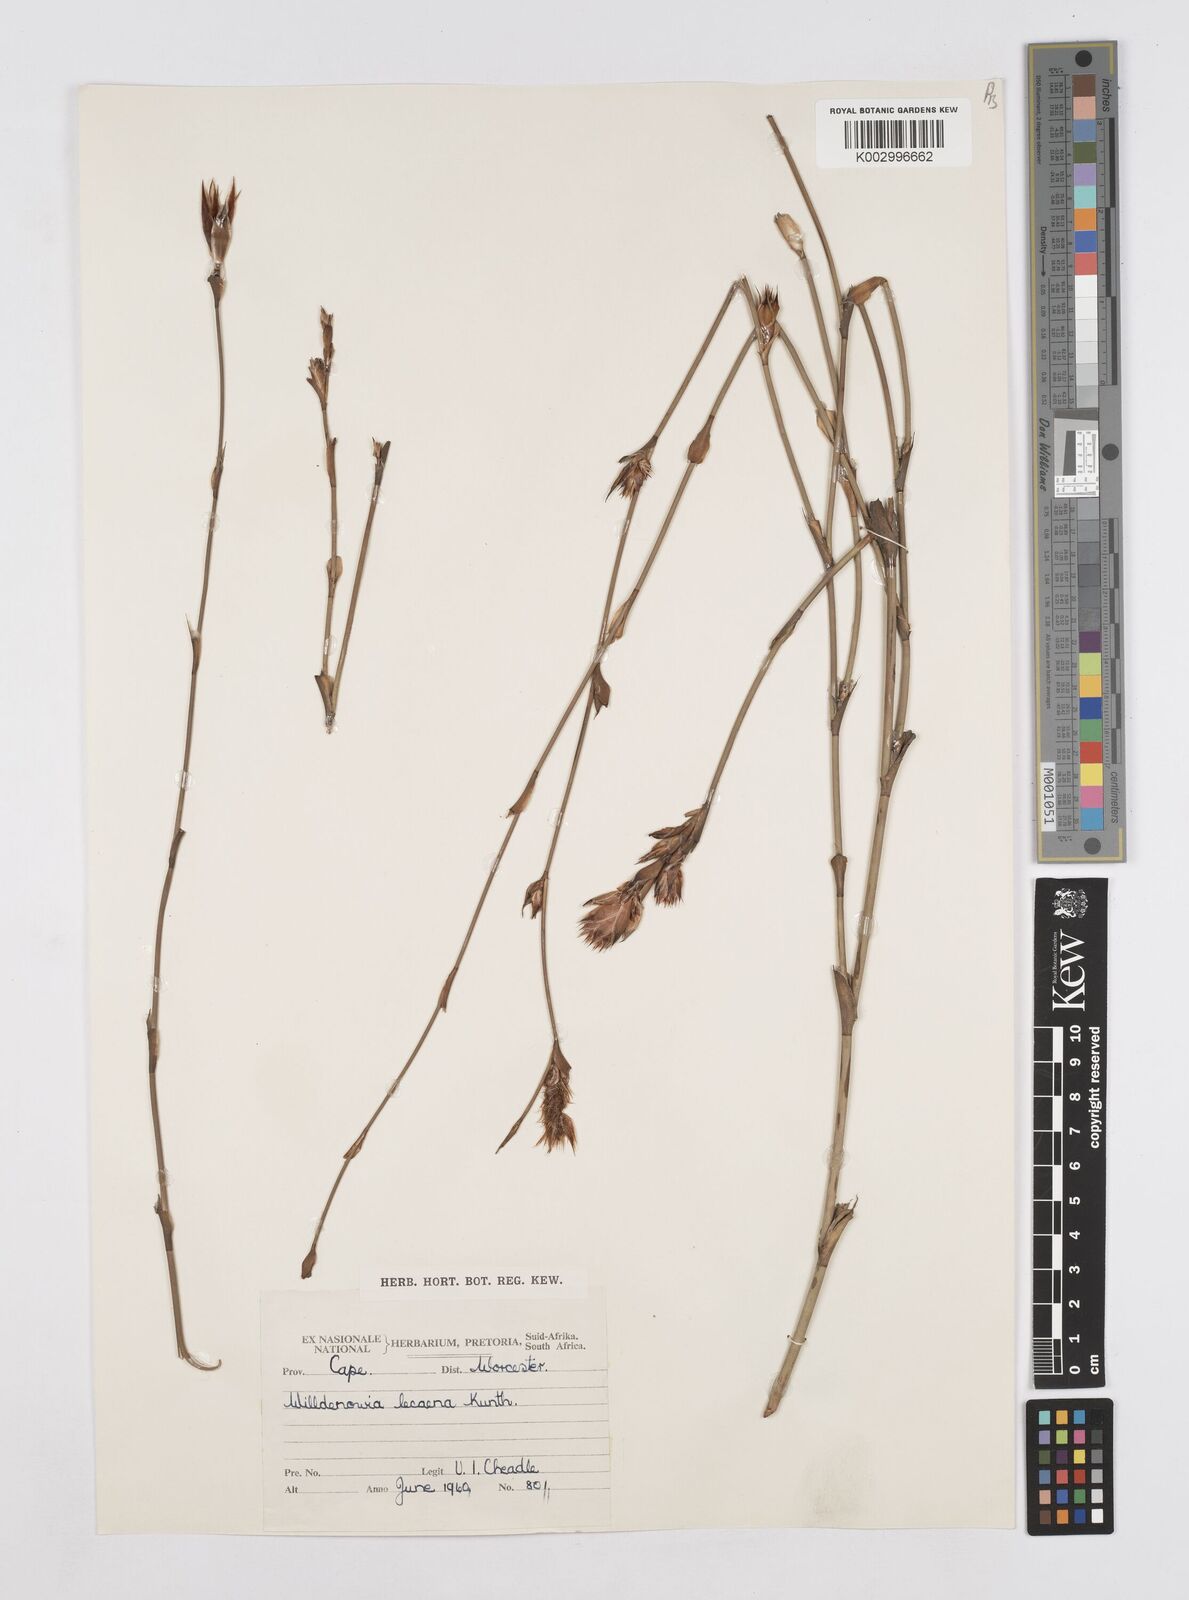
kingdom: Plantae
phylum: Tracheophyta
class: Liliopsida
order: Poales
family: Restionaceae
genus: Willdenowia
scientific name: Willdenowia glomerata
